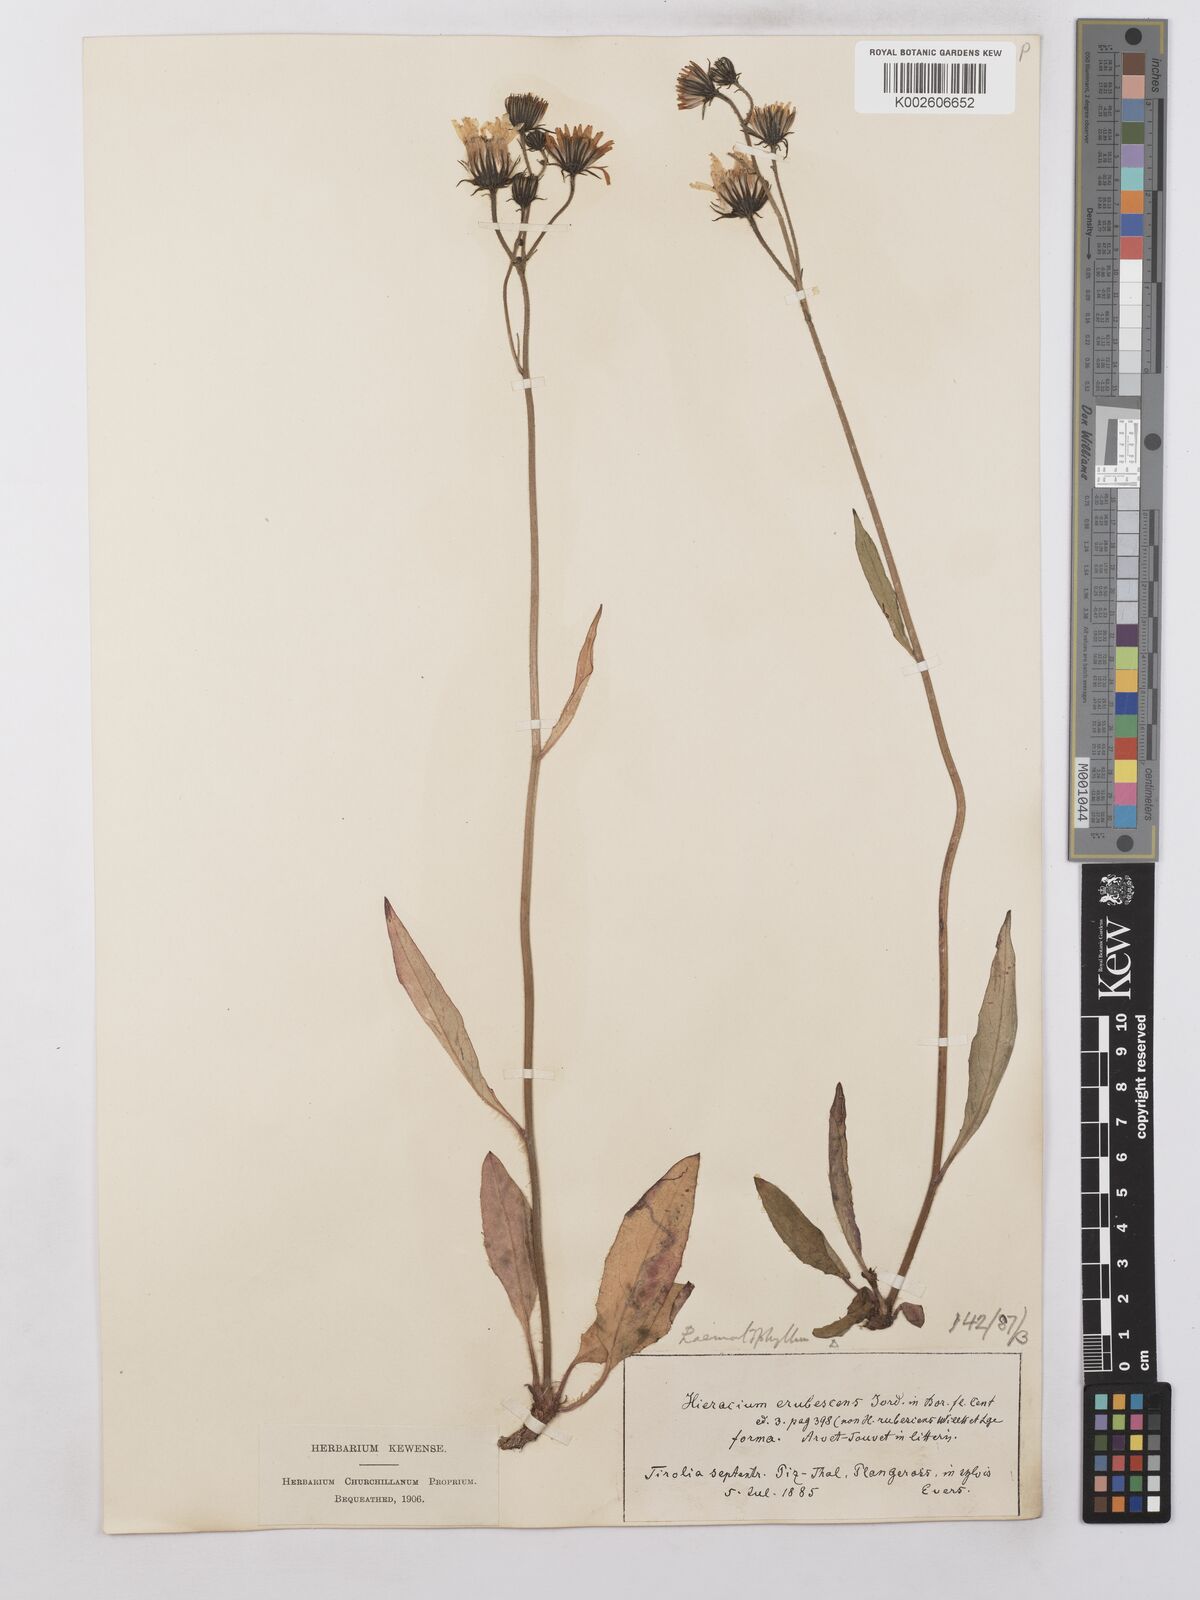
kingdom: Plantae
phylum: Tracheophyta
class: Magnoliopsida
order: Asterales
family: Asteraceae
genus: Hieracium
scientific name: Hieracium lepidulum
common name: Irregular-toothed hawkweed
